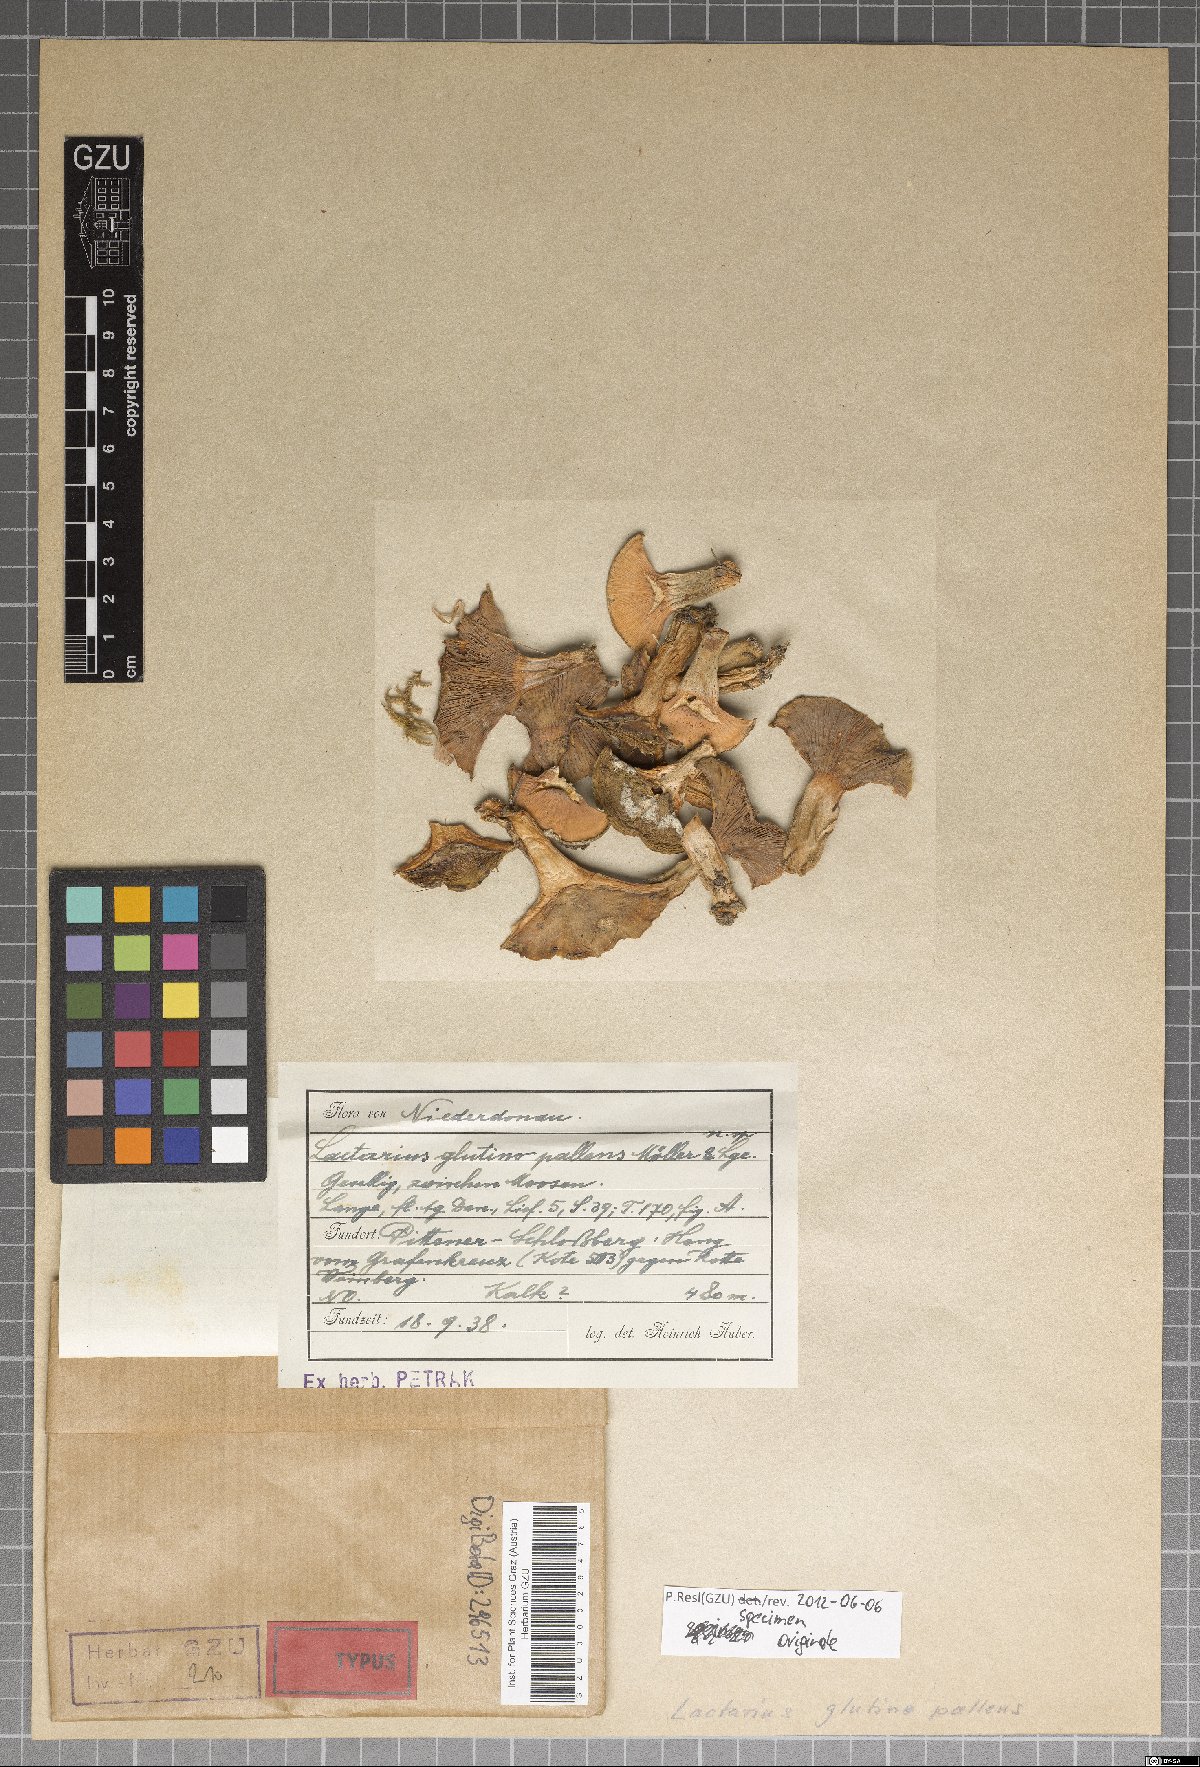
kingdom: Fungi
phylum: Basidiomycota
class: Agaricomycetes
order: Russulales
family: Russulaceae
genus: Lactarius
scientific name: Lactarius albocarneus
